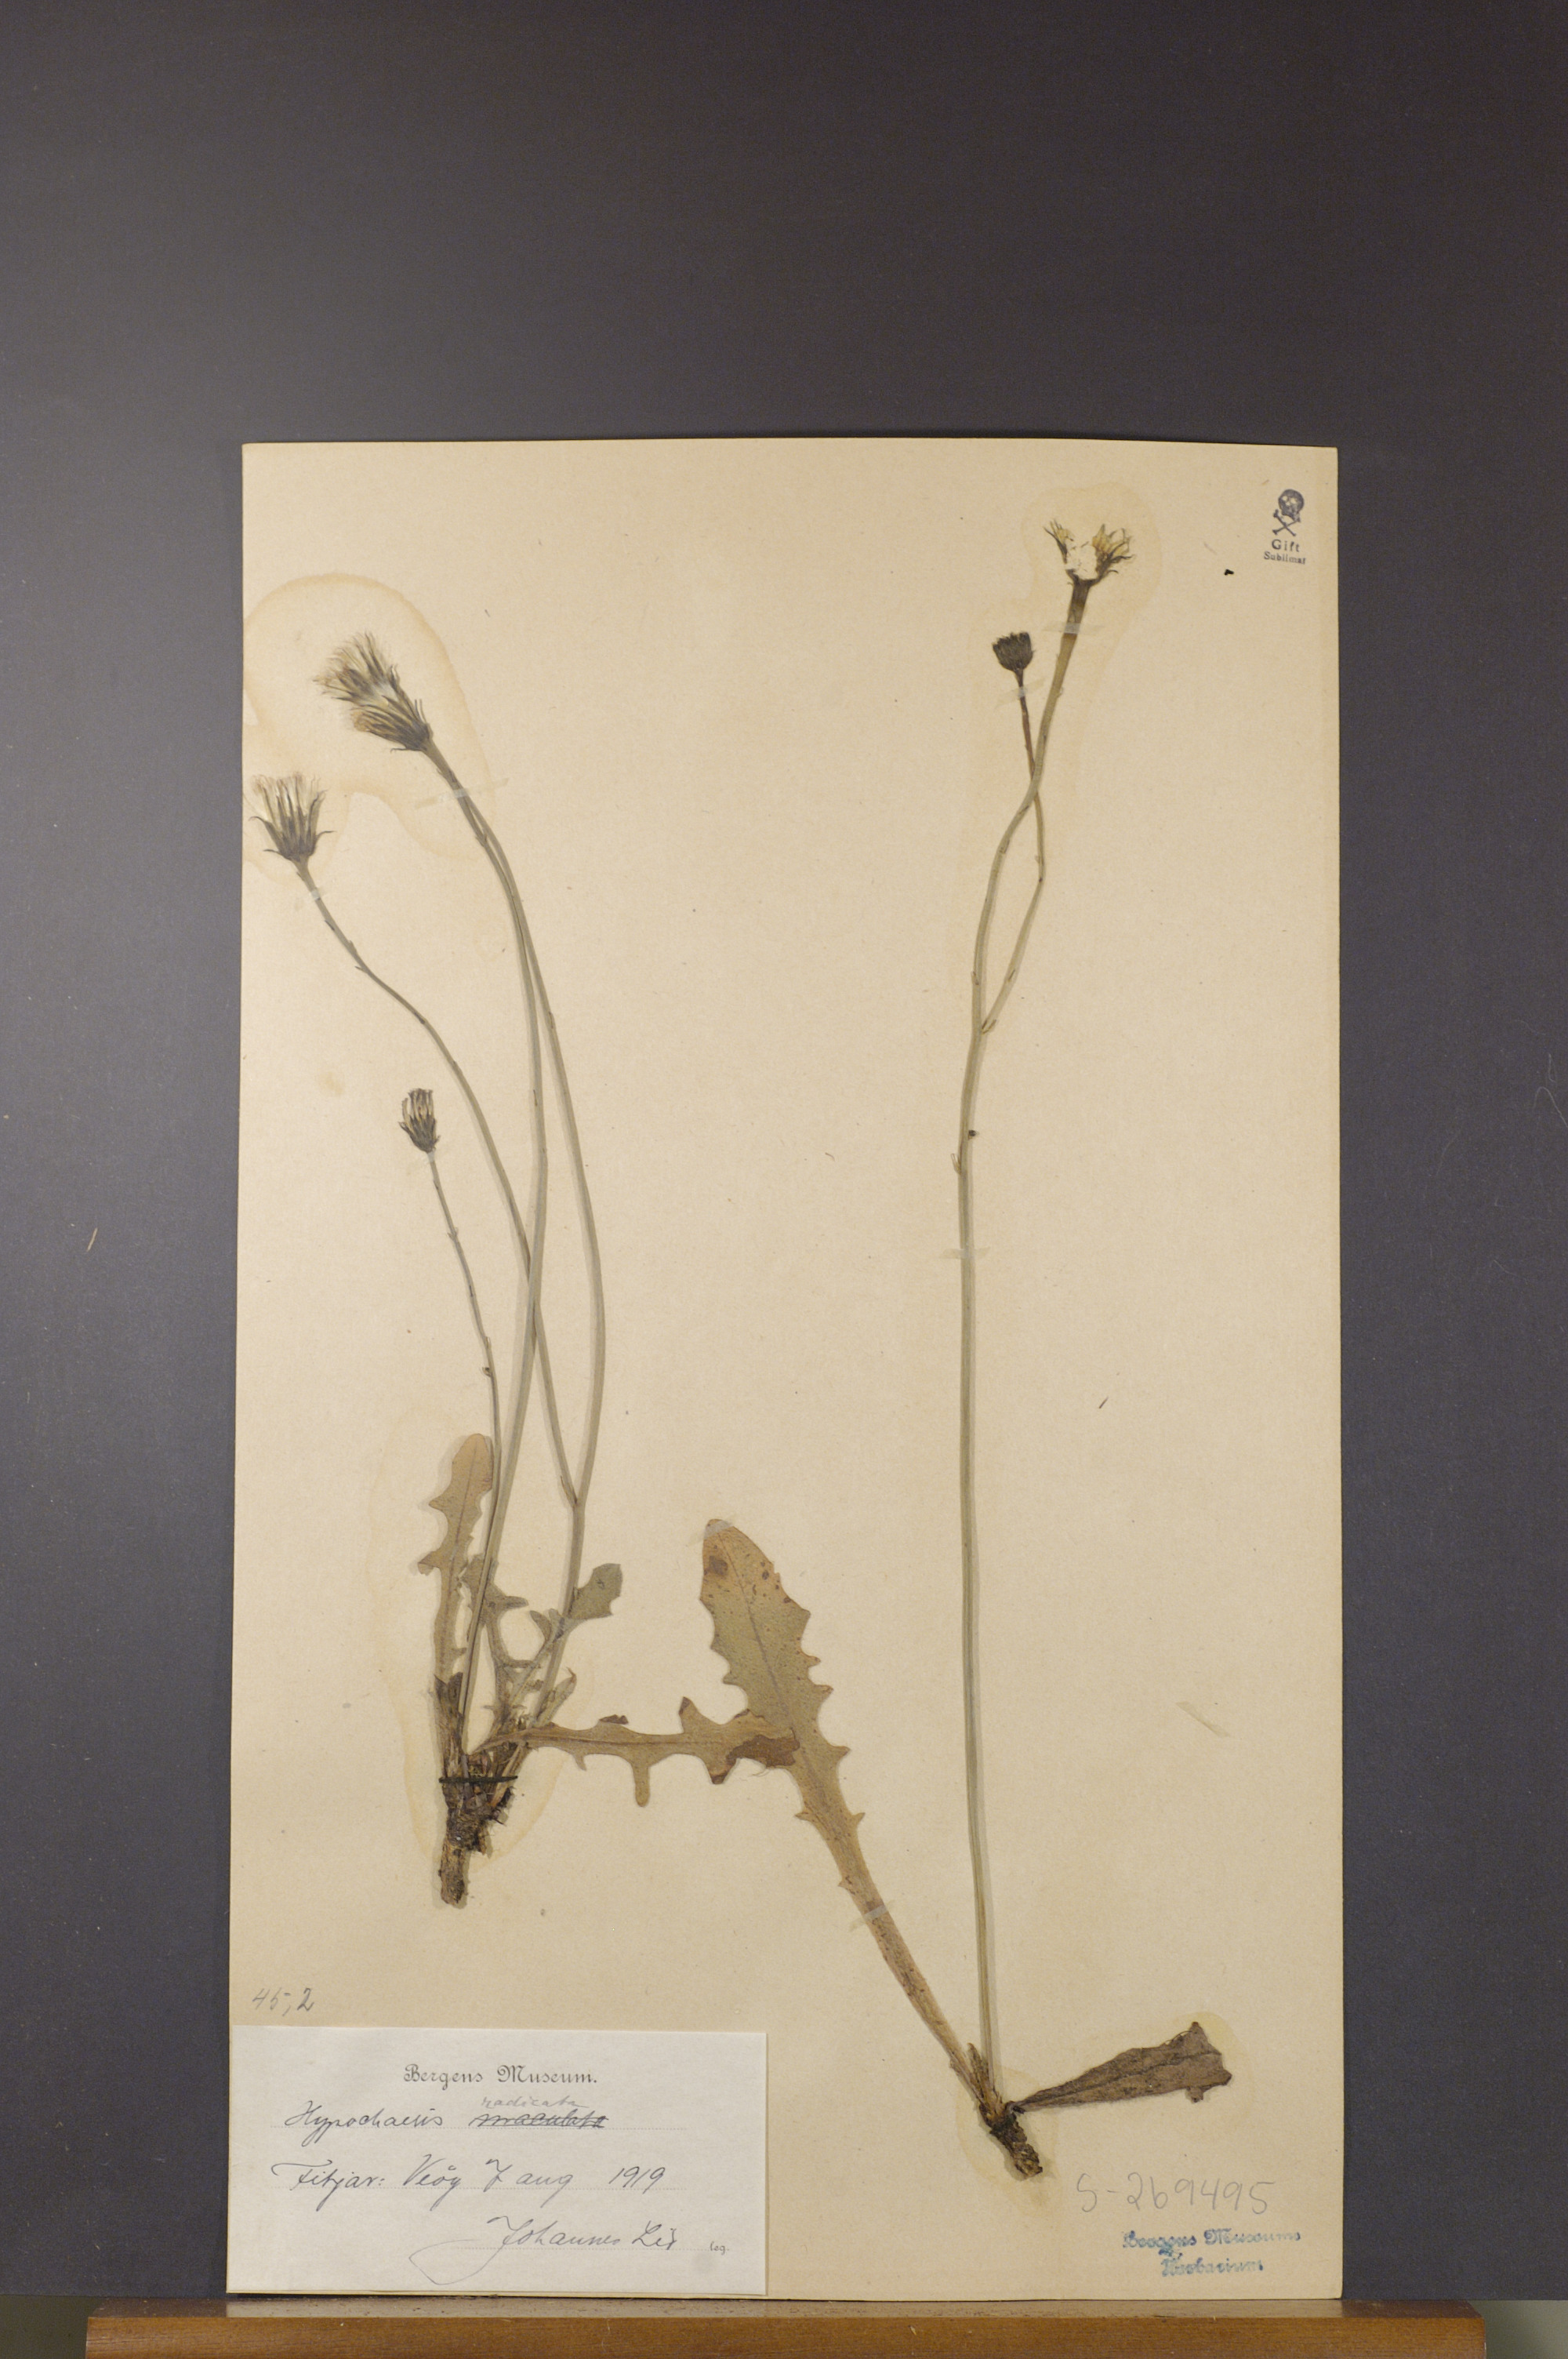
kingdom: Plantae
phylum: Tracheophyta
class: Magnoliopsida
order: Asterales
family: Asteraceae
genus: Hypochaeris
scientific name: Hypochaeris radicata
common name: Flatweed
